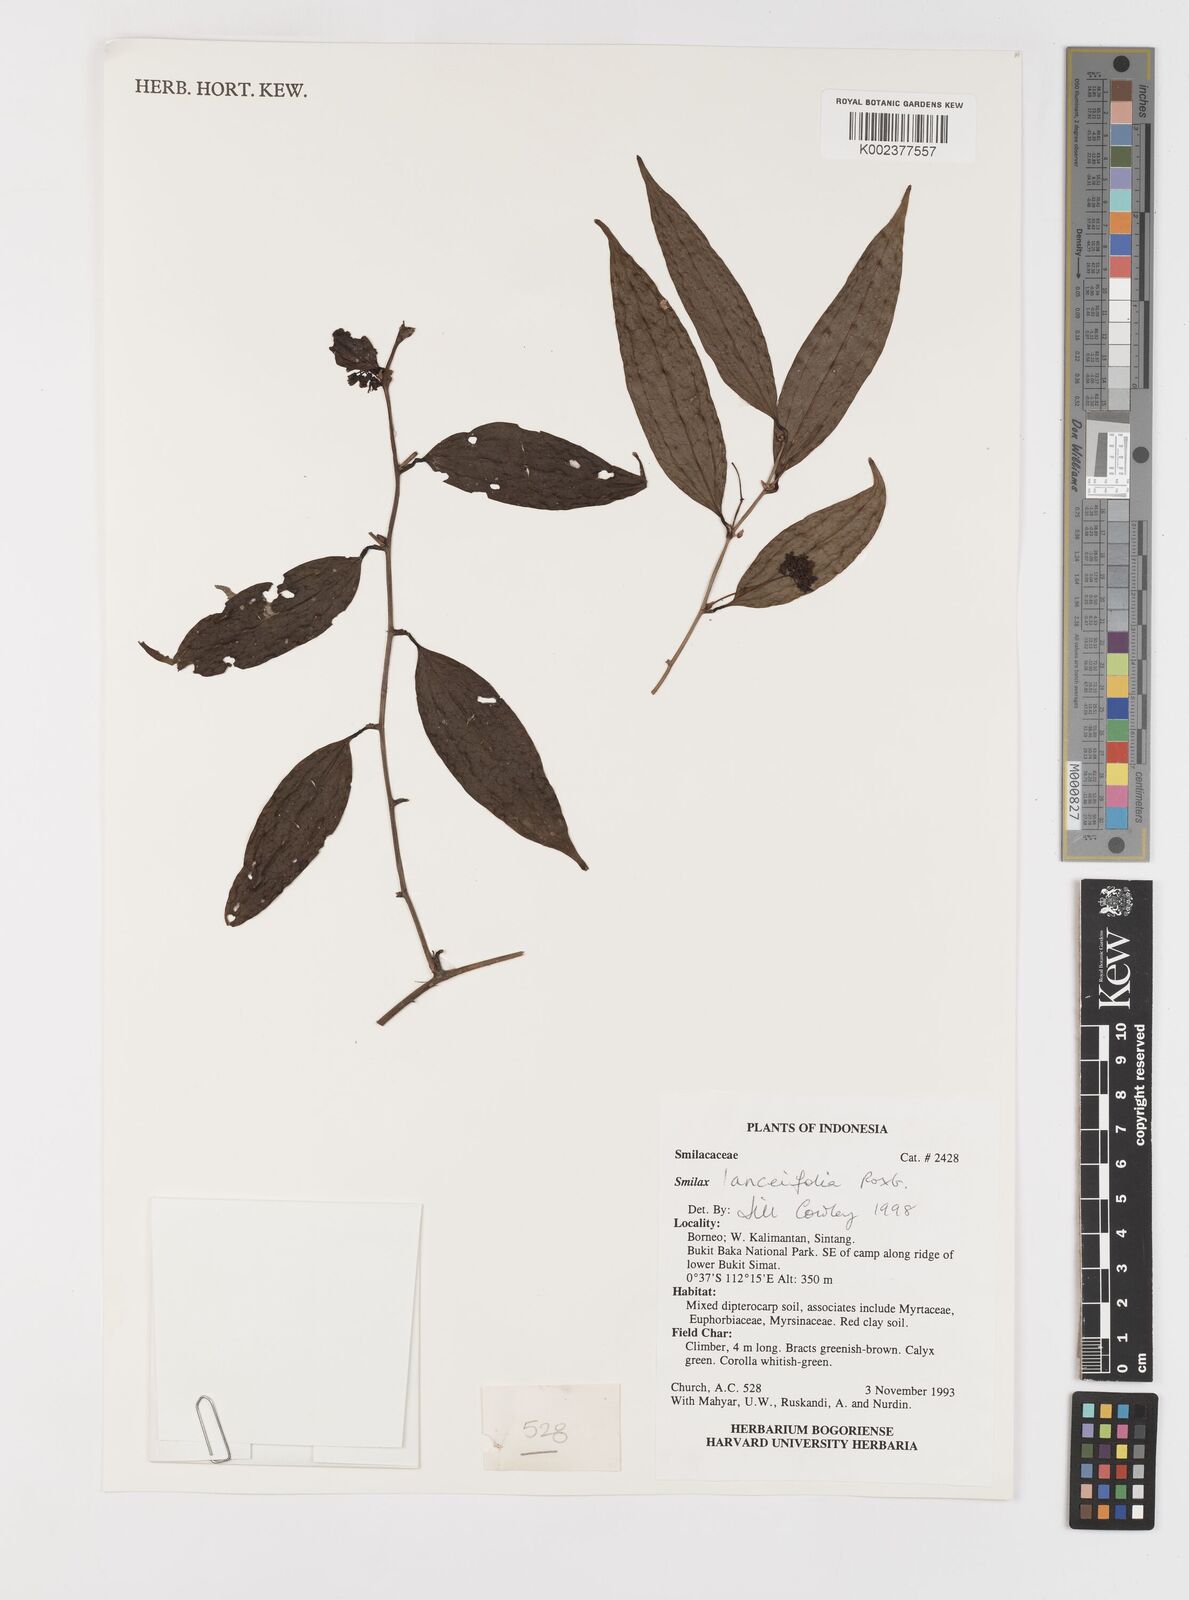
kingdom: Plantae
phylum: Tracheophyta
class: Liliopsida
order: Liliales
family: Smilacaceae
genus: Smilax
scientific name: Smilax lanceifolia
